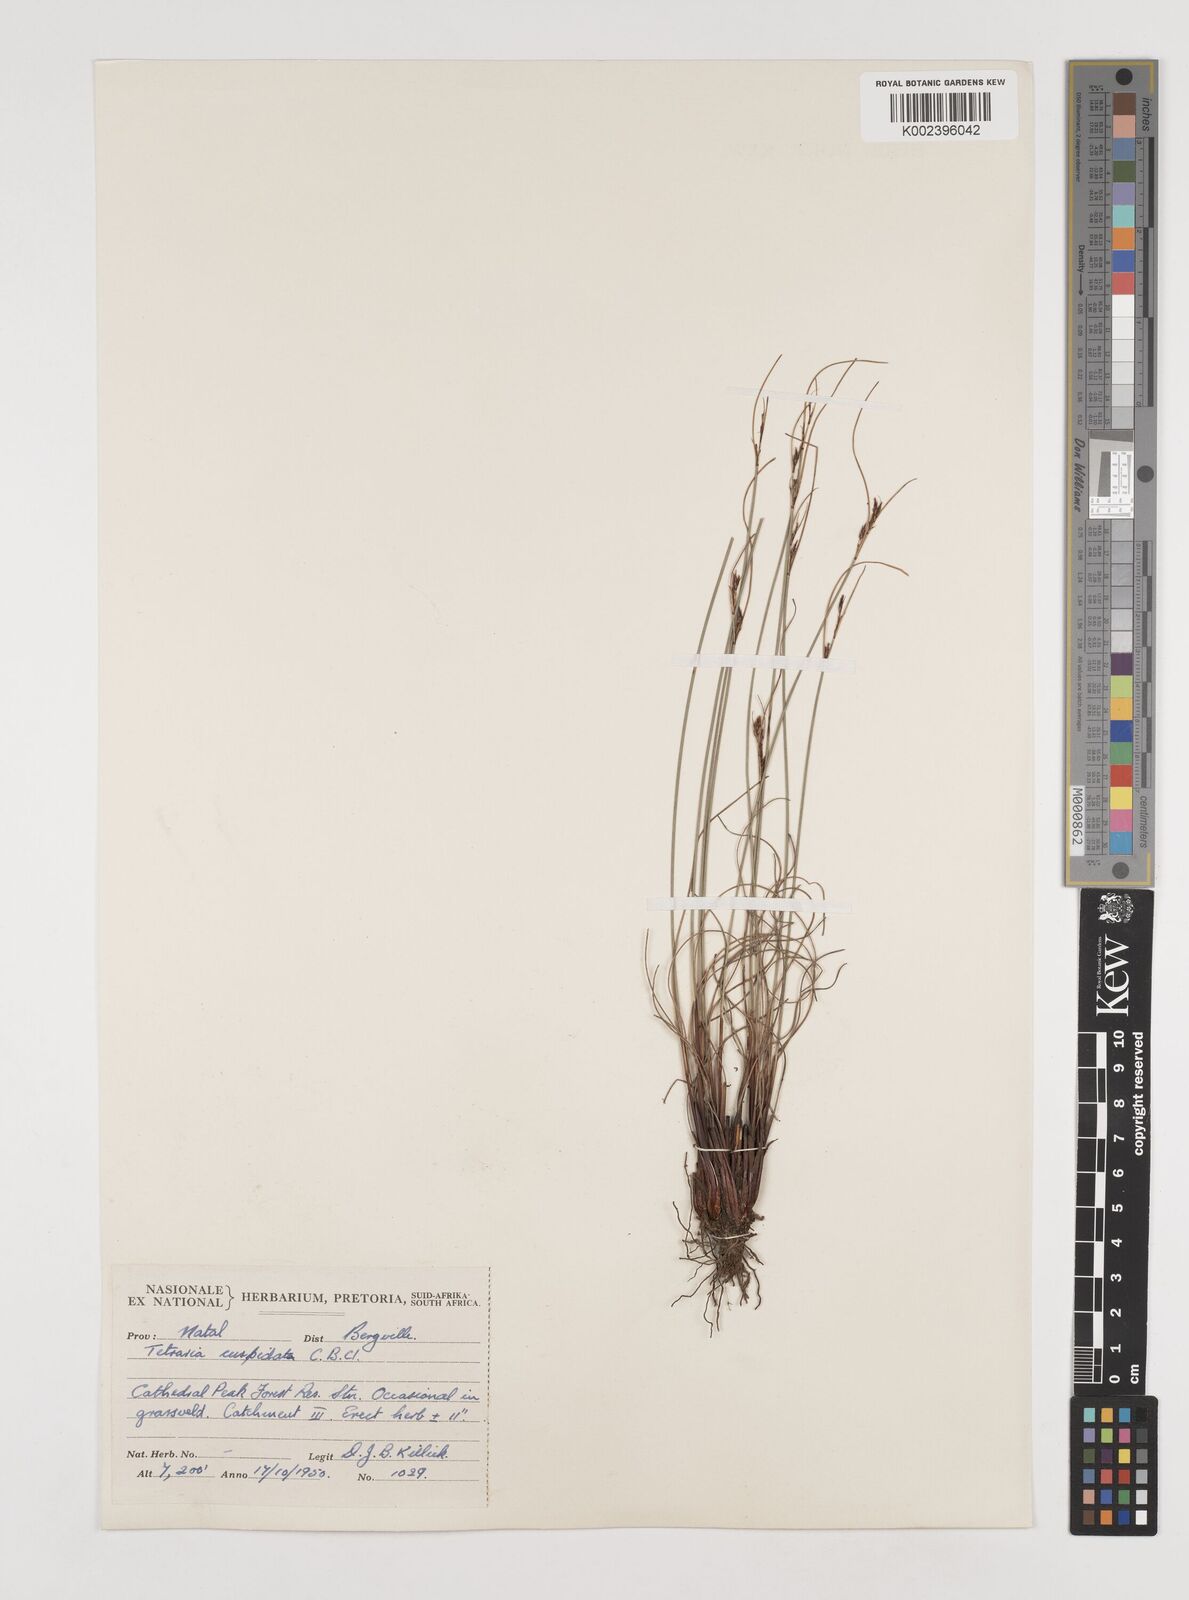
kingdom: Plantae
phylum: Tracheophyta
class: Liliopsida
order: Poales
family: Cyperaceae
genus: Schoenus
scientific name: Schoenus cuspidatus
